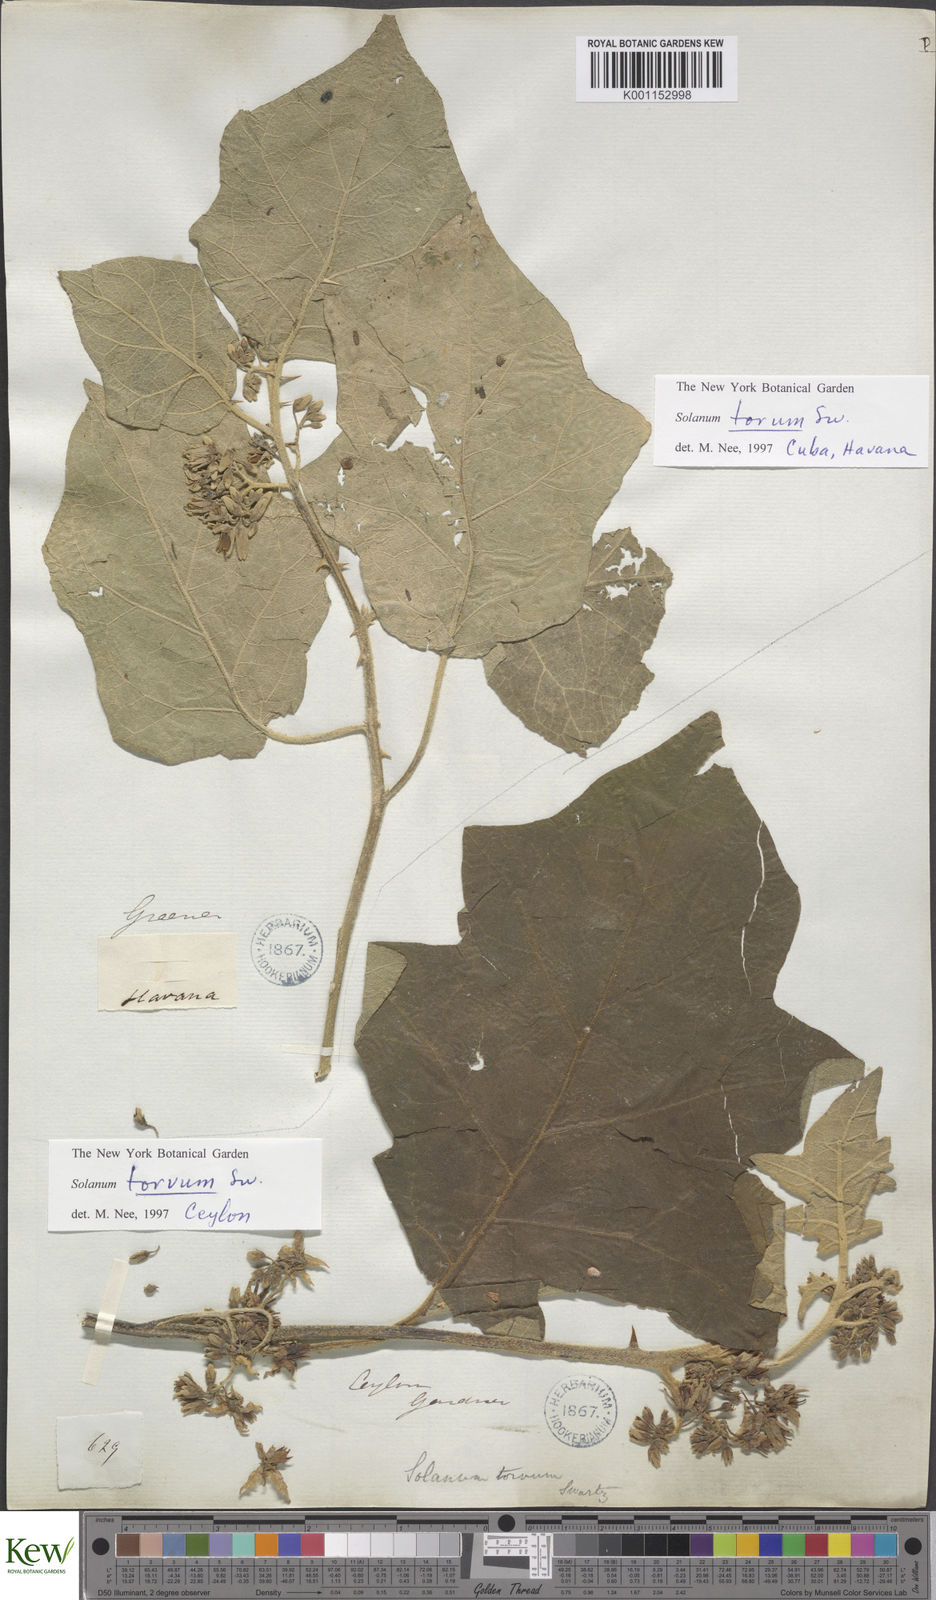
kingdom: Plantae
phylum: Tracheophyta
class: Magnoliopsida
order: Solanales
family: Solanaceae
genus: Solanum
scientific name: Solanum torvum
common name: Turkey berry
